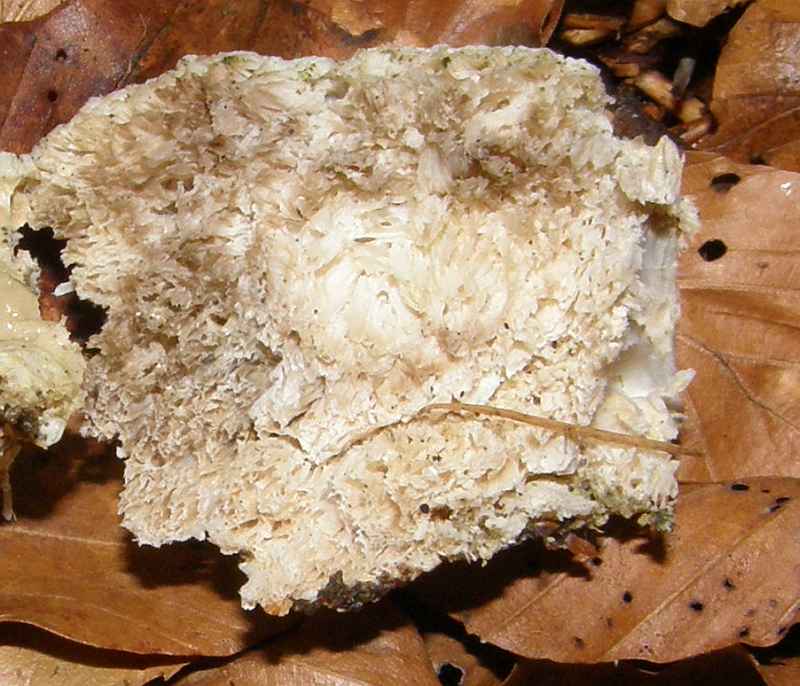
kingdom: Fungi
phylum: Basidiomycota
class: Agaricomycetes
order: Polyporales
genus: Amaropostia
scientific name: Amaropostia stiptica
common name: bitter kødporesvamp
